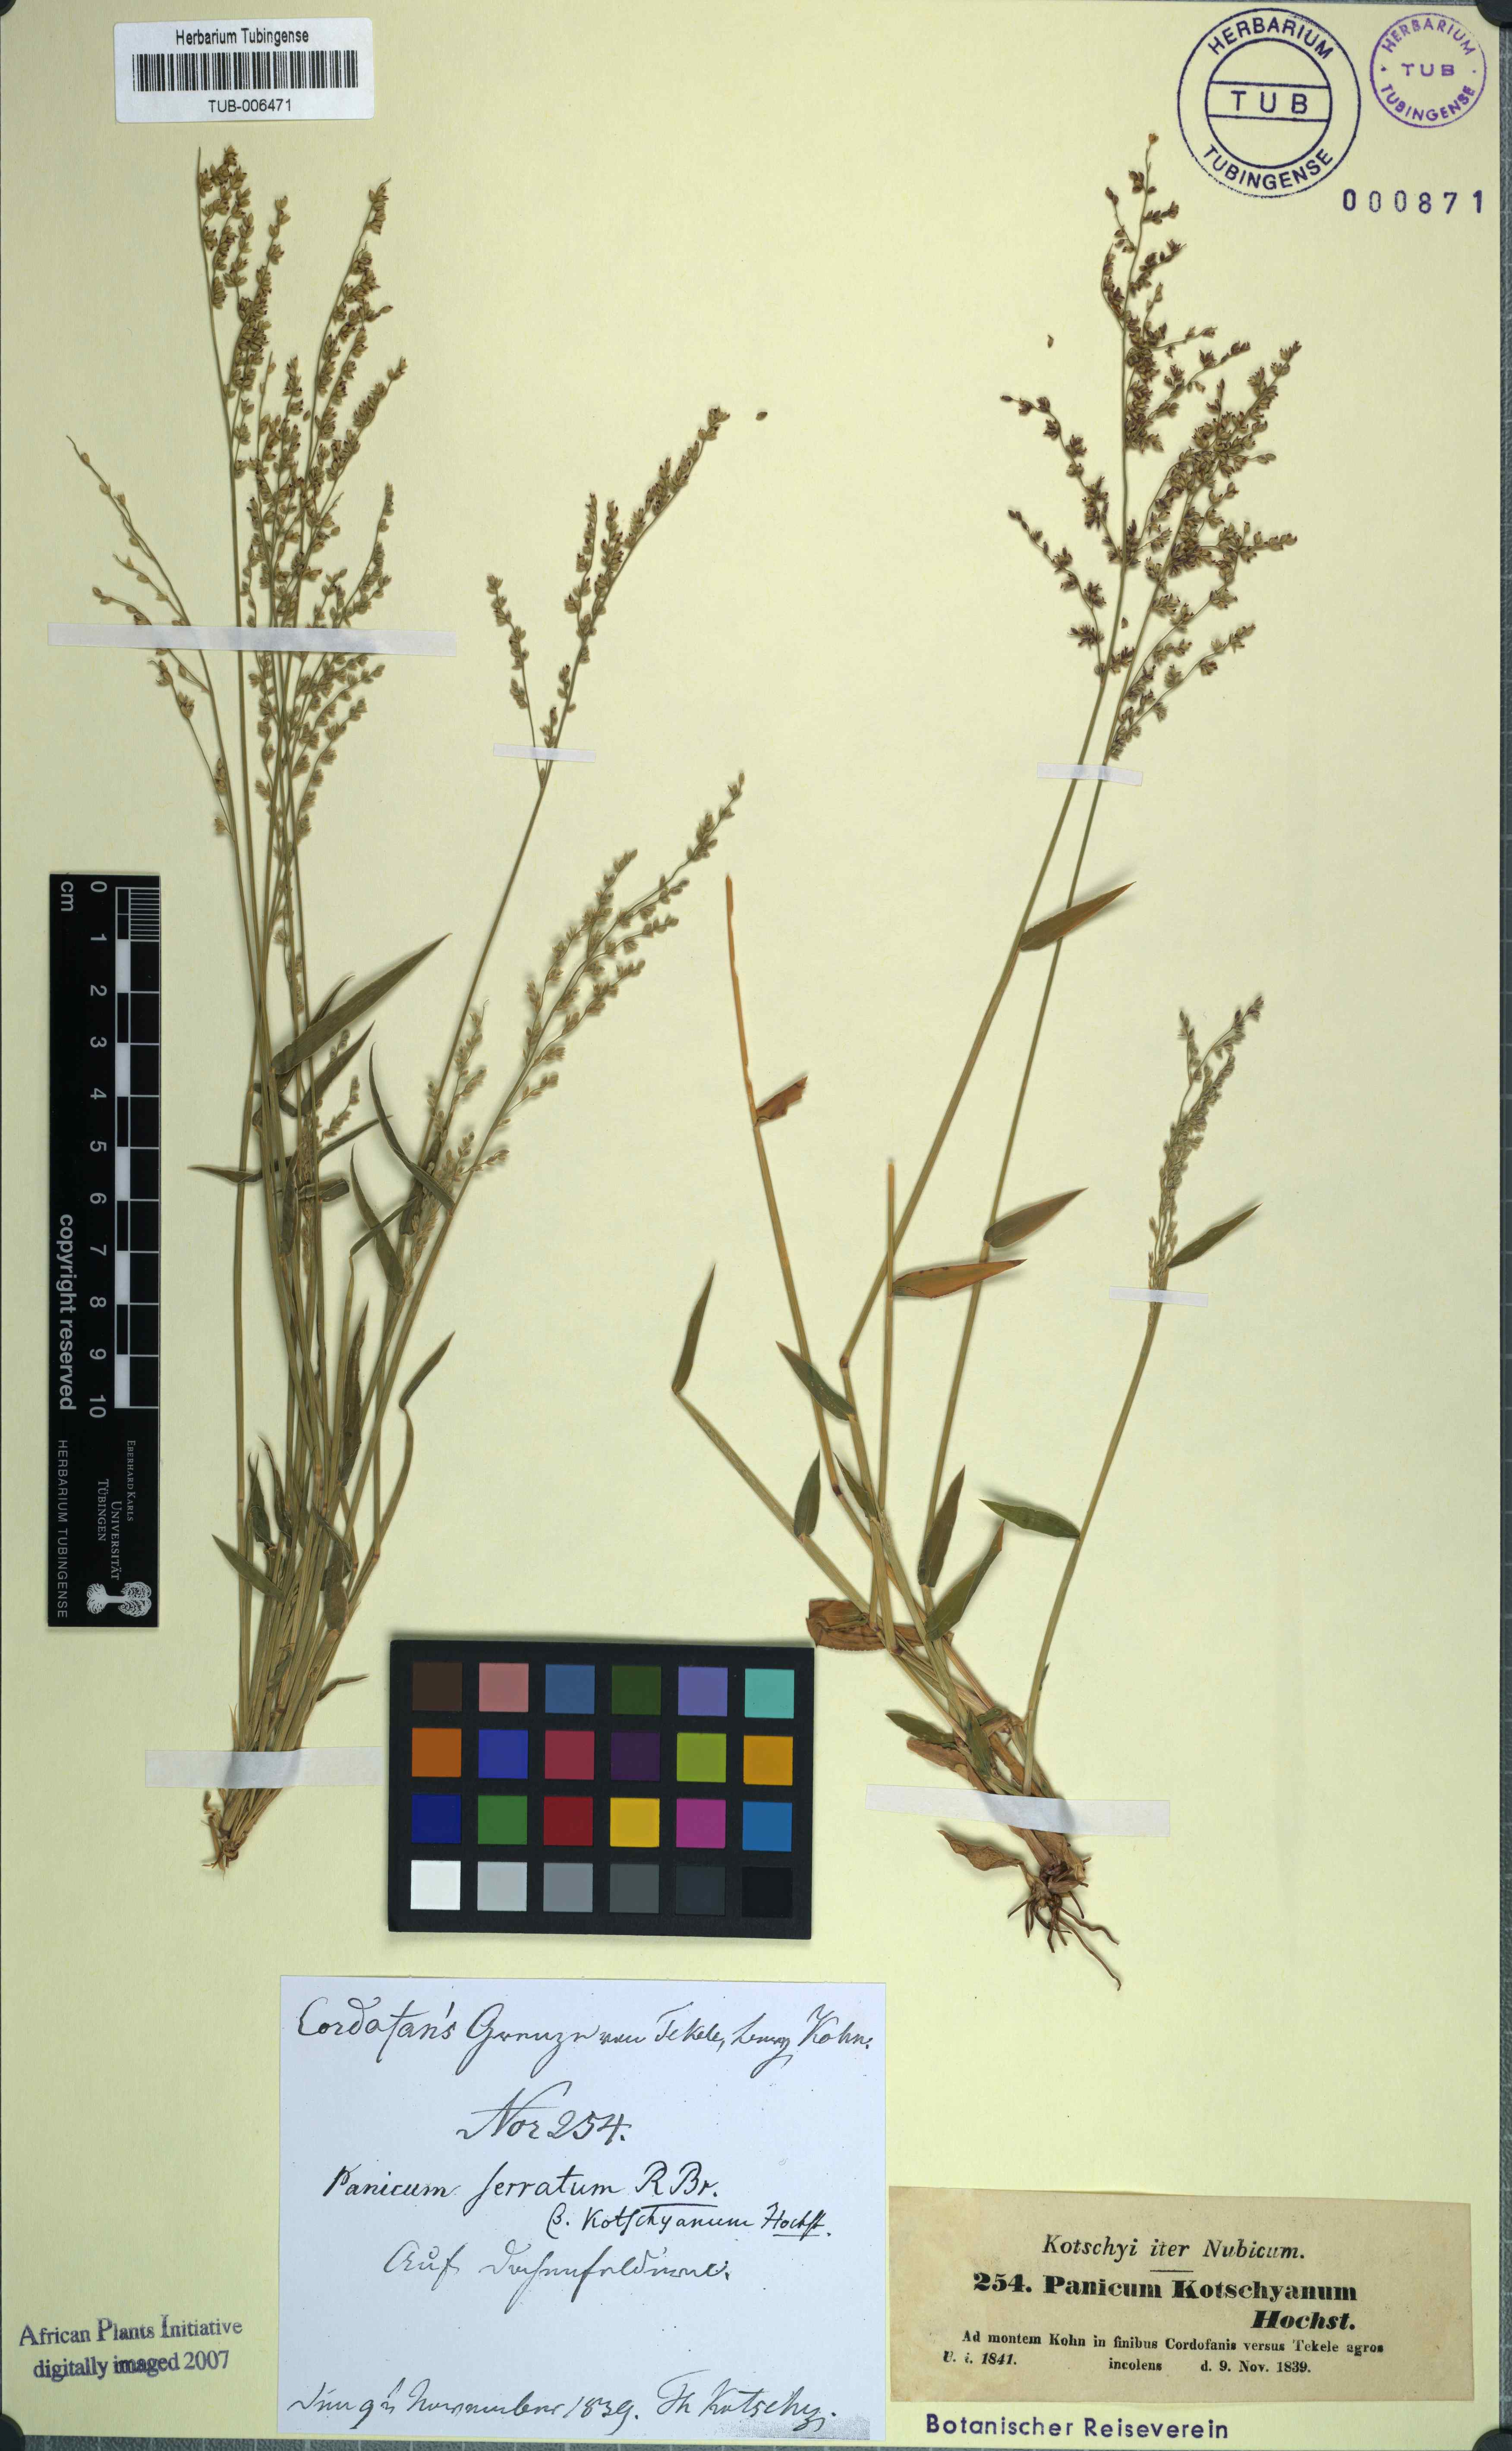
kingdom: Plantae
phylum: Tracheophyta
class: Liliopsida
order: Poales
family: Poaceae
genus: Urochloa
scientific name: Urochloa ramosa
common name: Browntop millet
